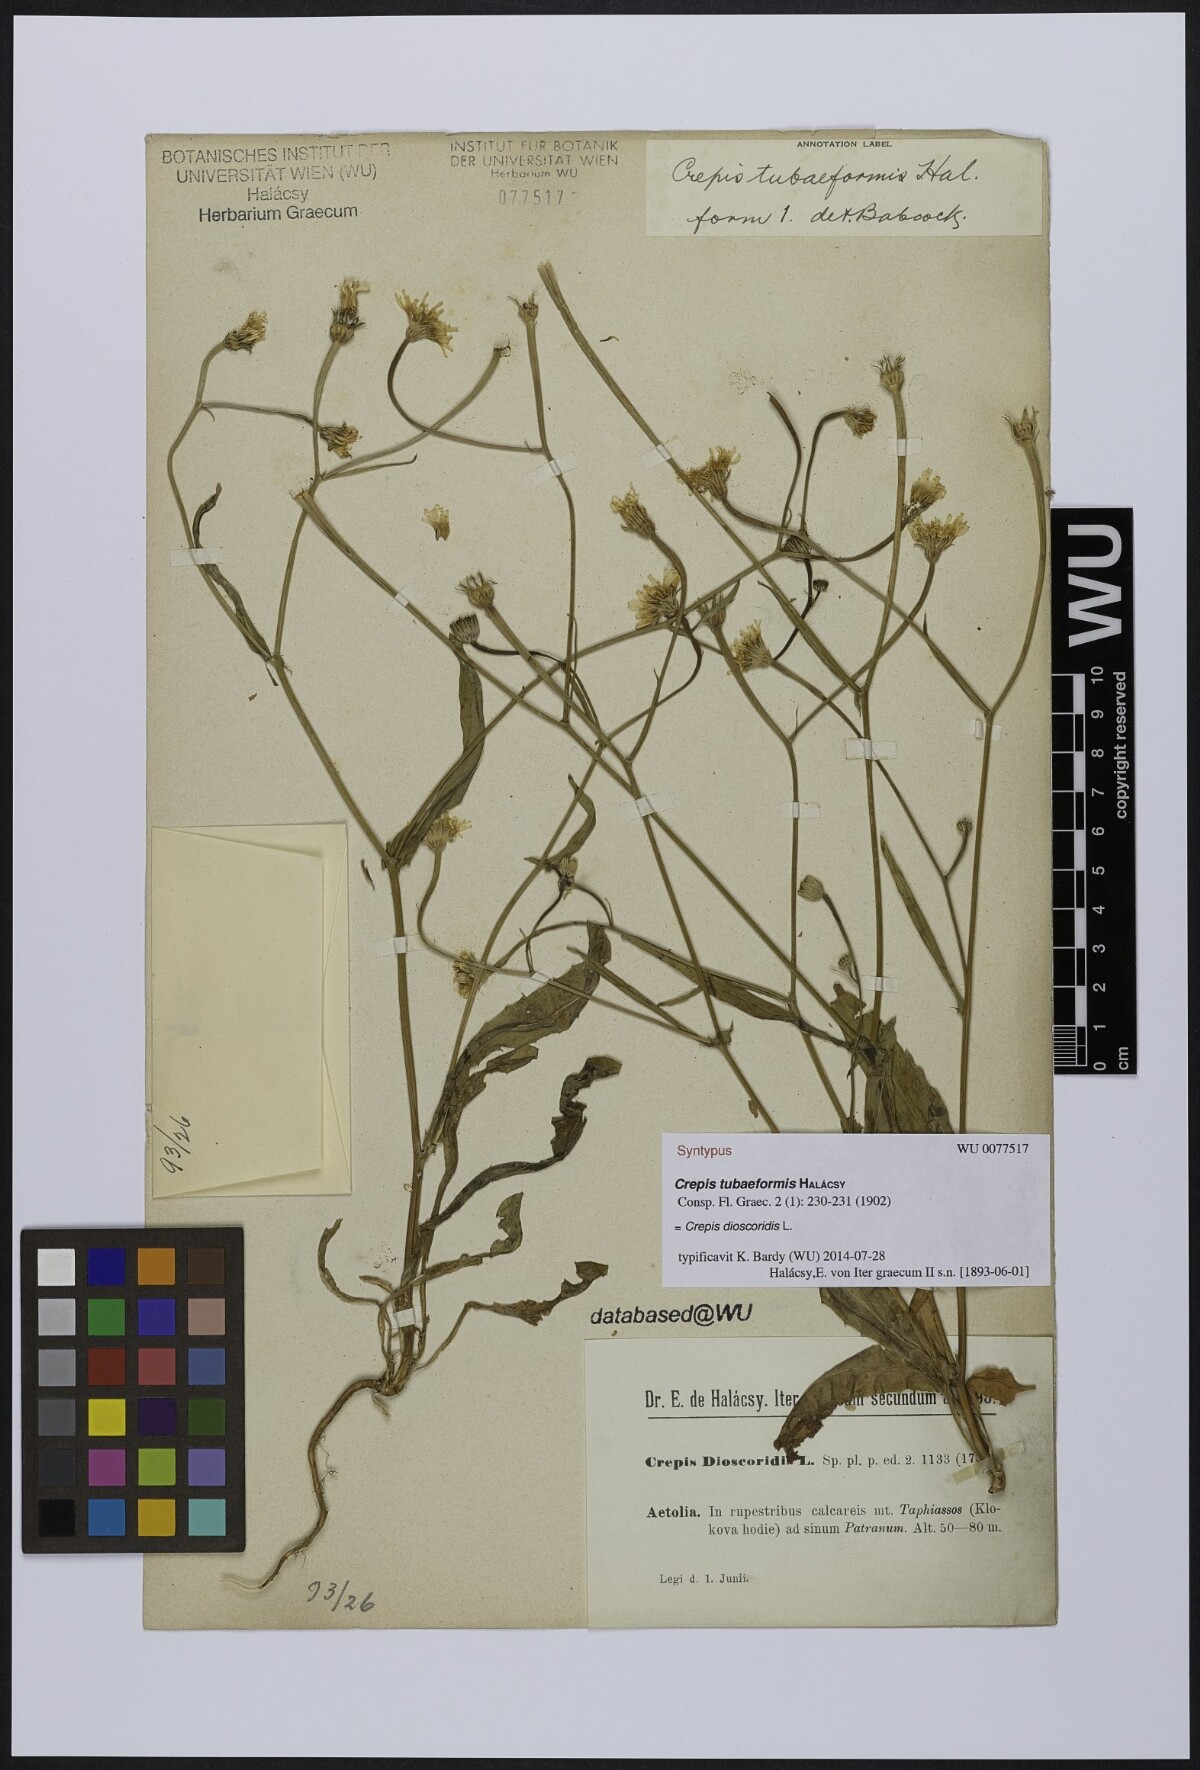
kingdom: Plantae
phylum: Tracheophyta
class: Magnoliopsida
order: Asterales
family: Asteraceae
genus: Crepis
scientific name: Crepis dioscoridis
